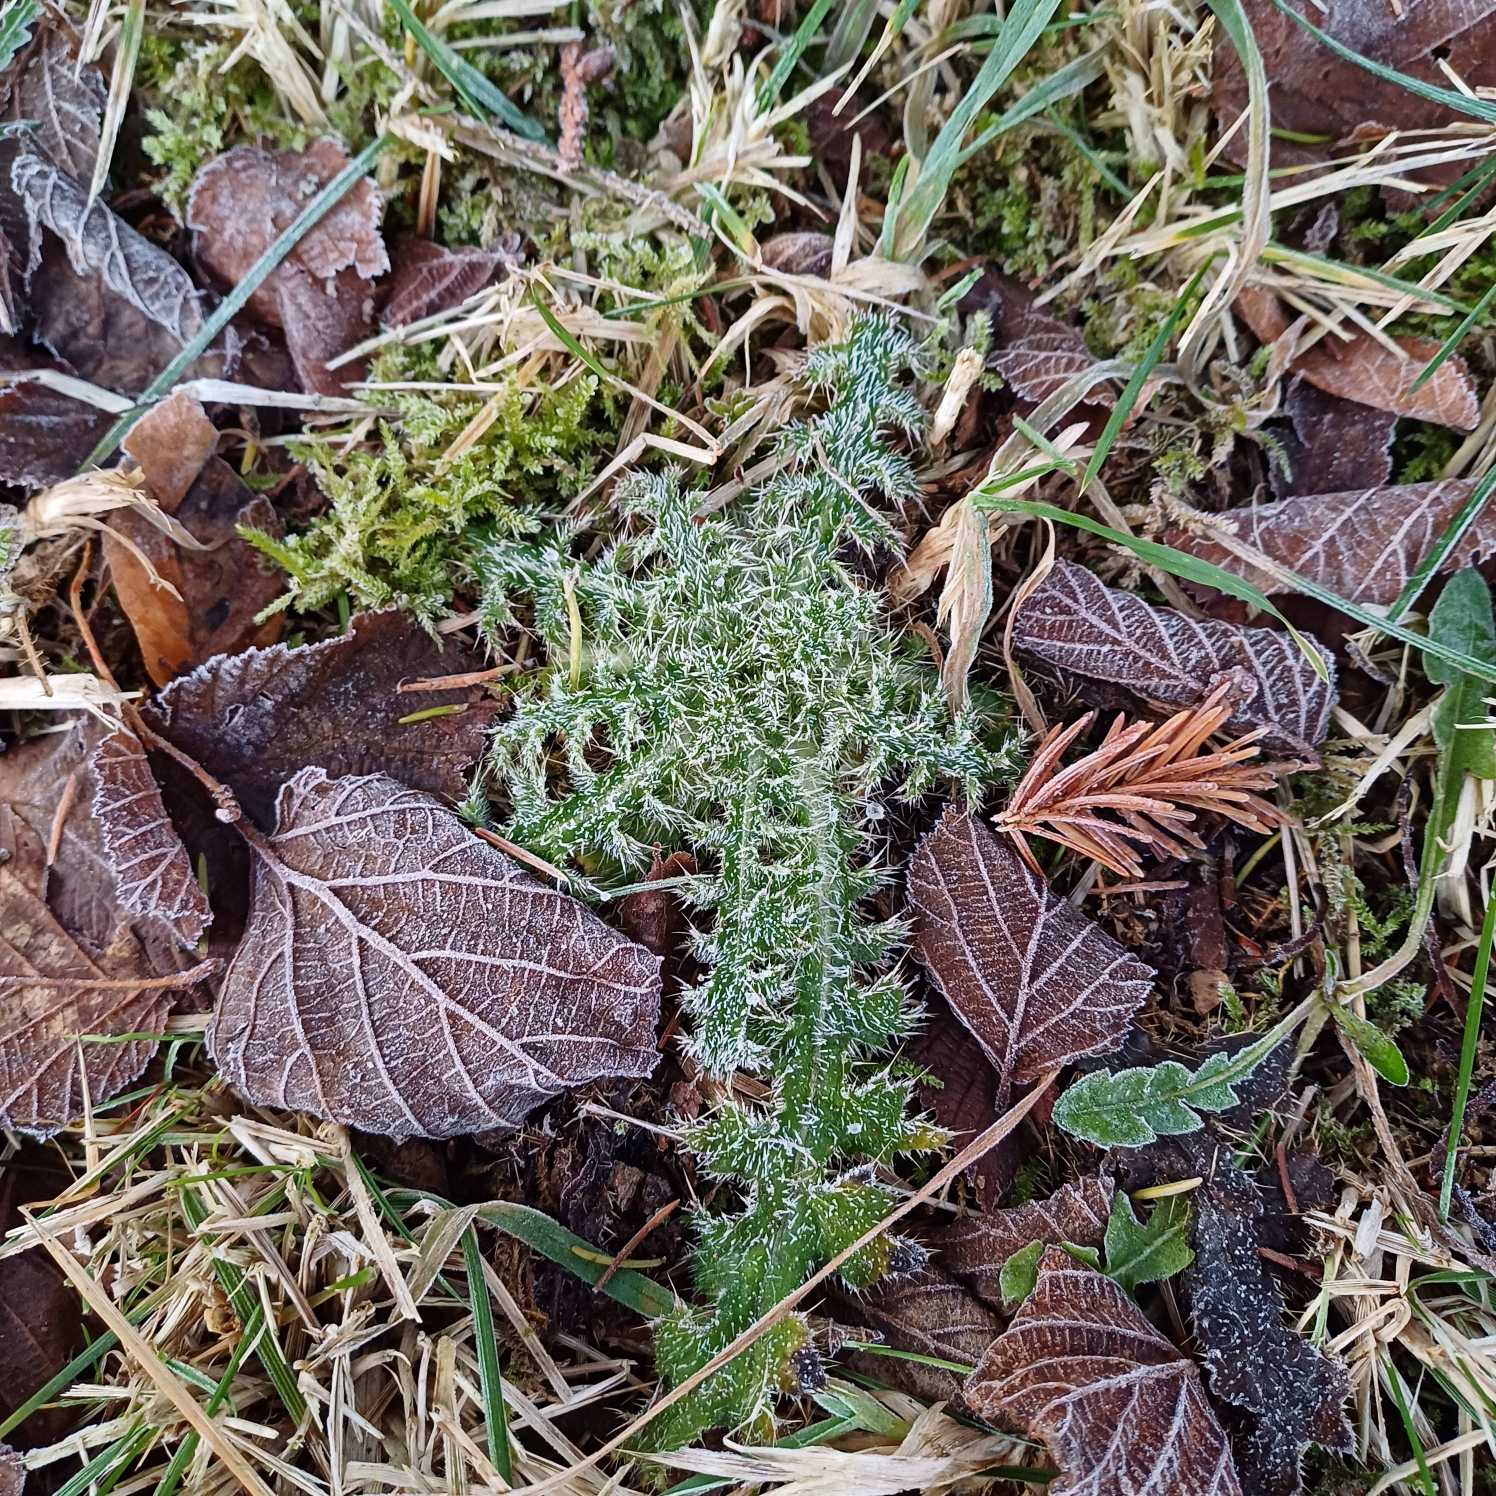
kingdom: Plantae
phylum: Tracheophyta
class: Magnoliopsida
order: Asterales
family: Asteraceae
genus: Cirsium
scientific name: Cirsium palustre
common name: Kær-tidsel
